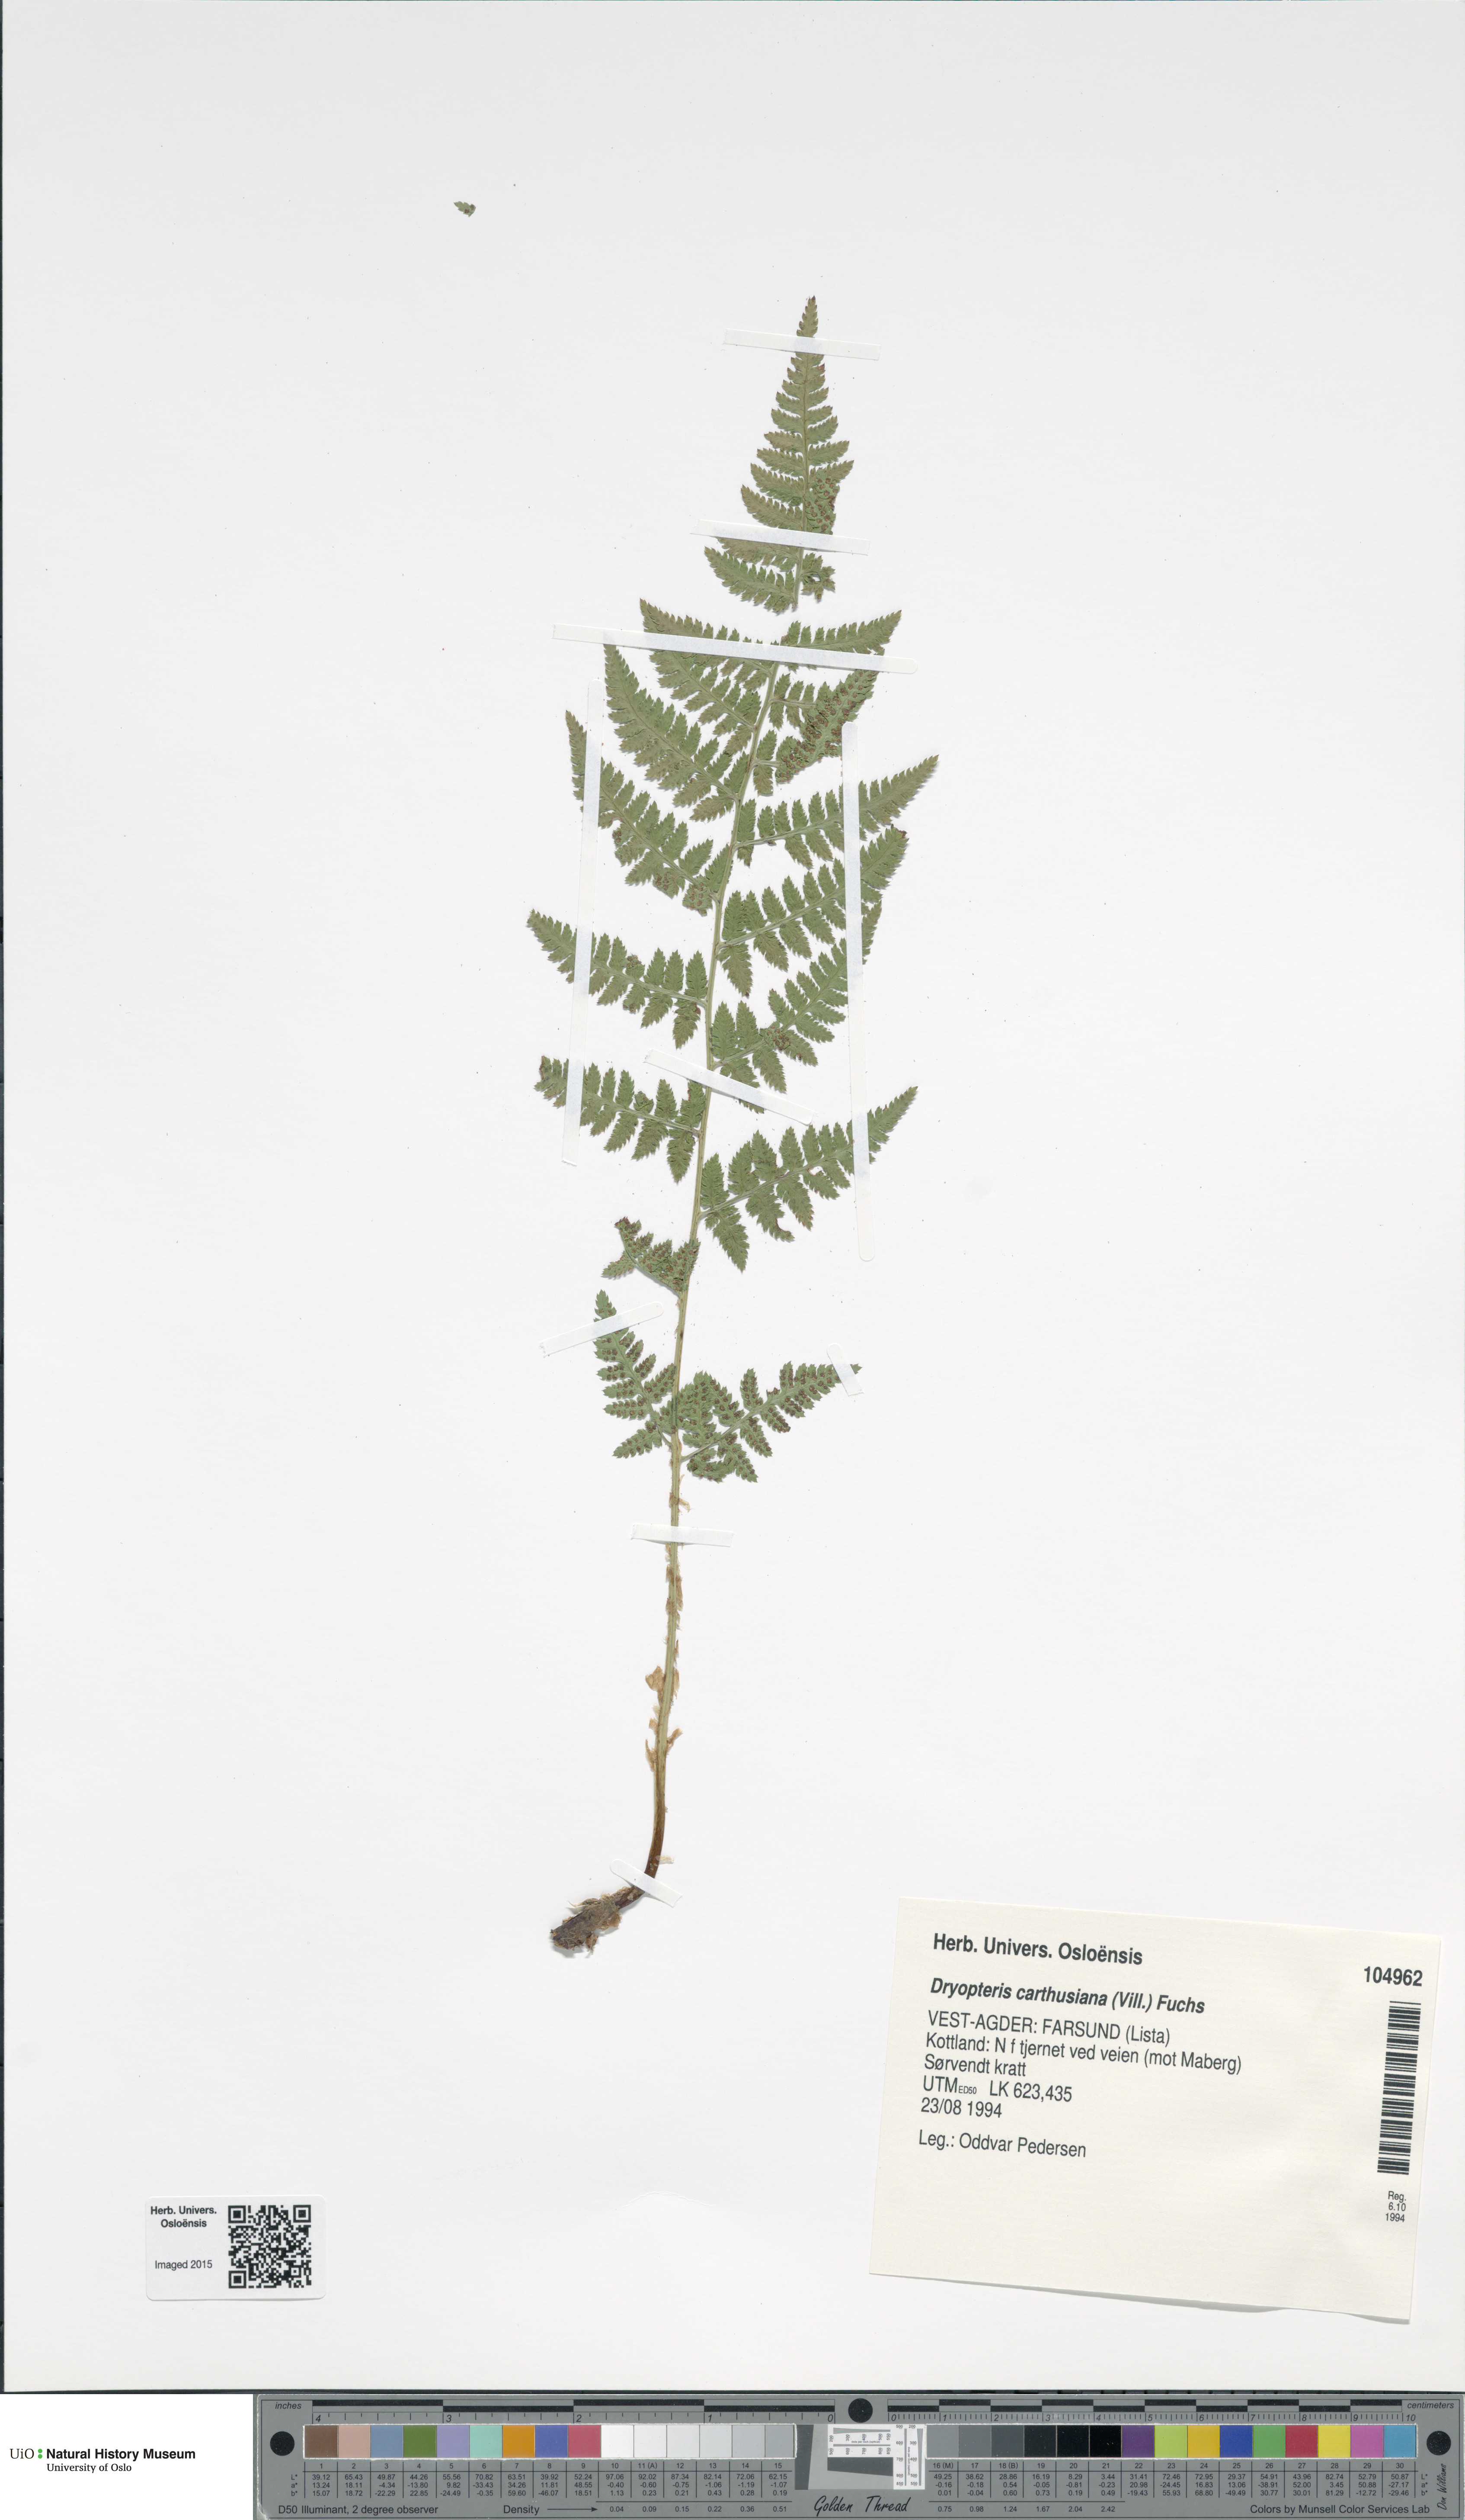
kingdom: Plantae
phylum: Tracheophyta
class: Polypodiopsida
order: Polypodiales
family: Dryopteridaceae
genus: Dryopteris
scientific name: Dryopteris carthusiana
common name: Narrow buckler-fern
